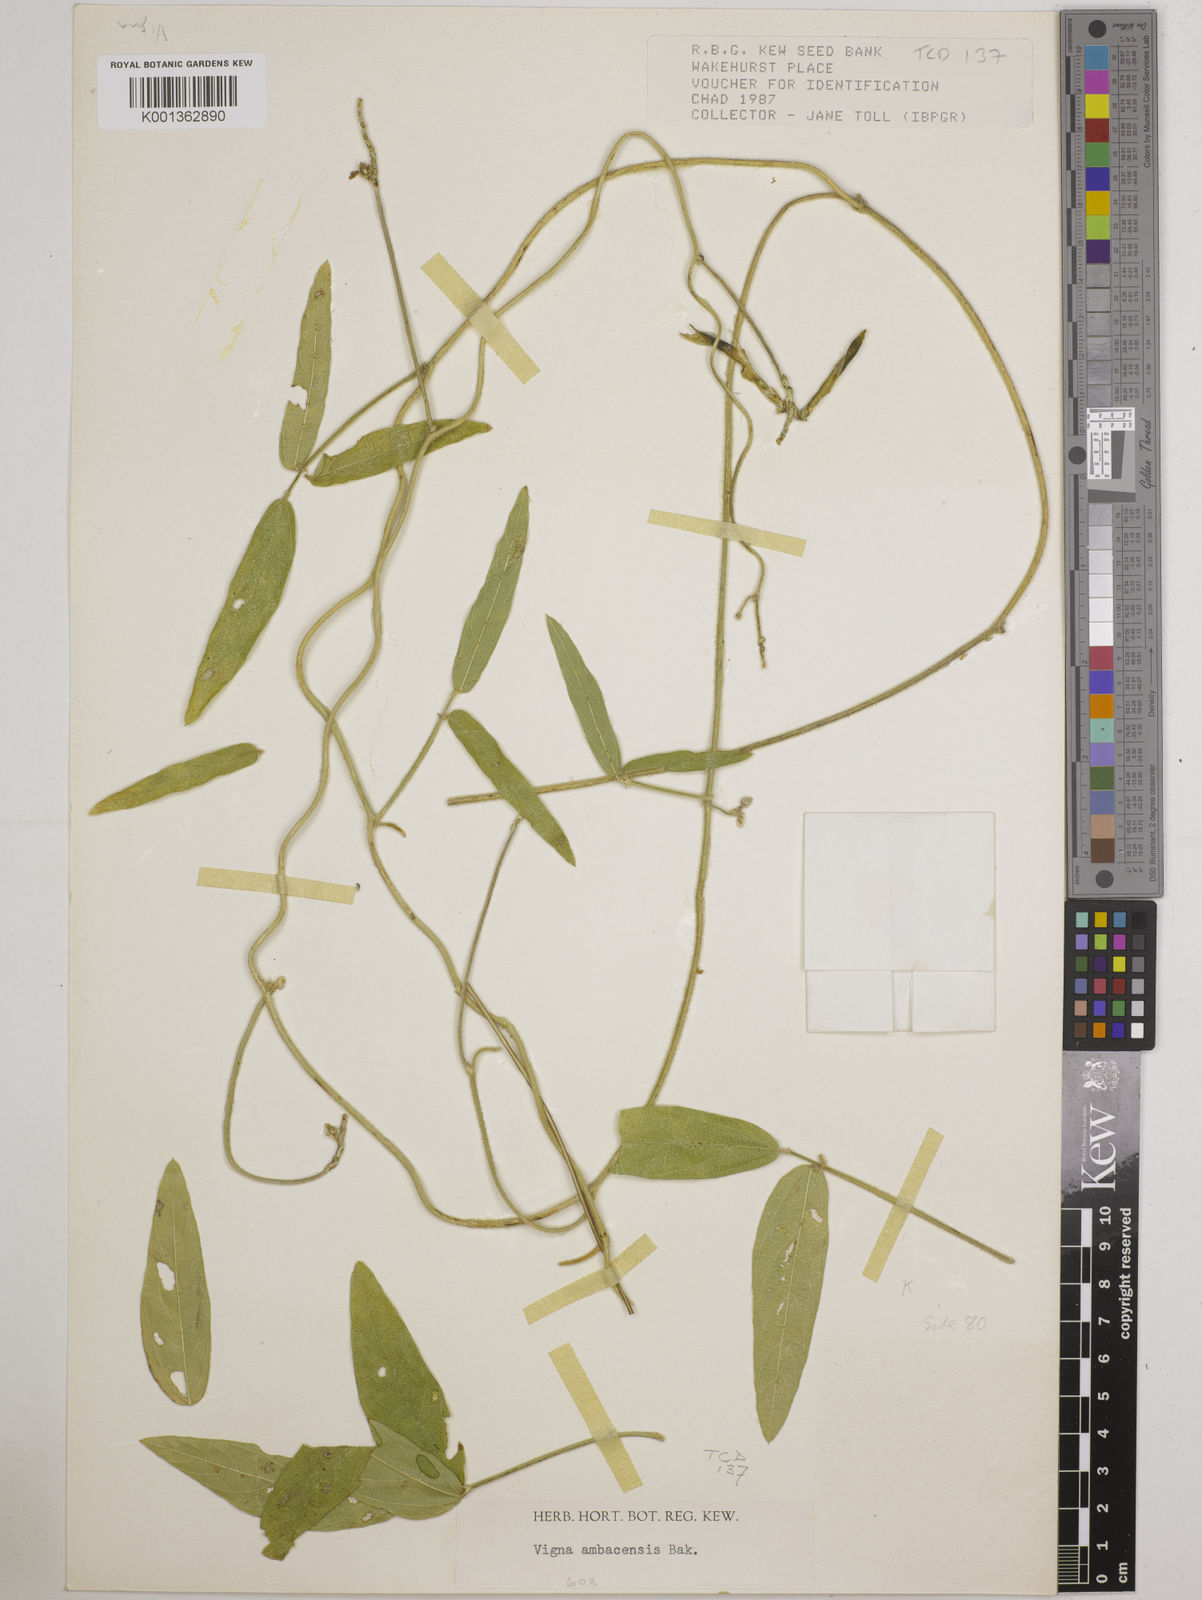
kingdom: Plantae
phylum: Tracheophyta
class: Magnoliopsida
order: Fabales
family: Fabaceae
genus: Vigna
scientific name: Vigna ambacensis
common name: Tsarkiyan zomo
